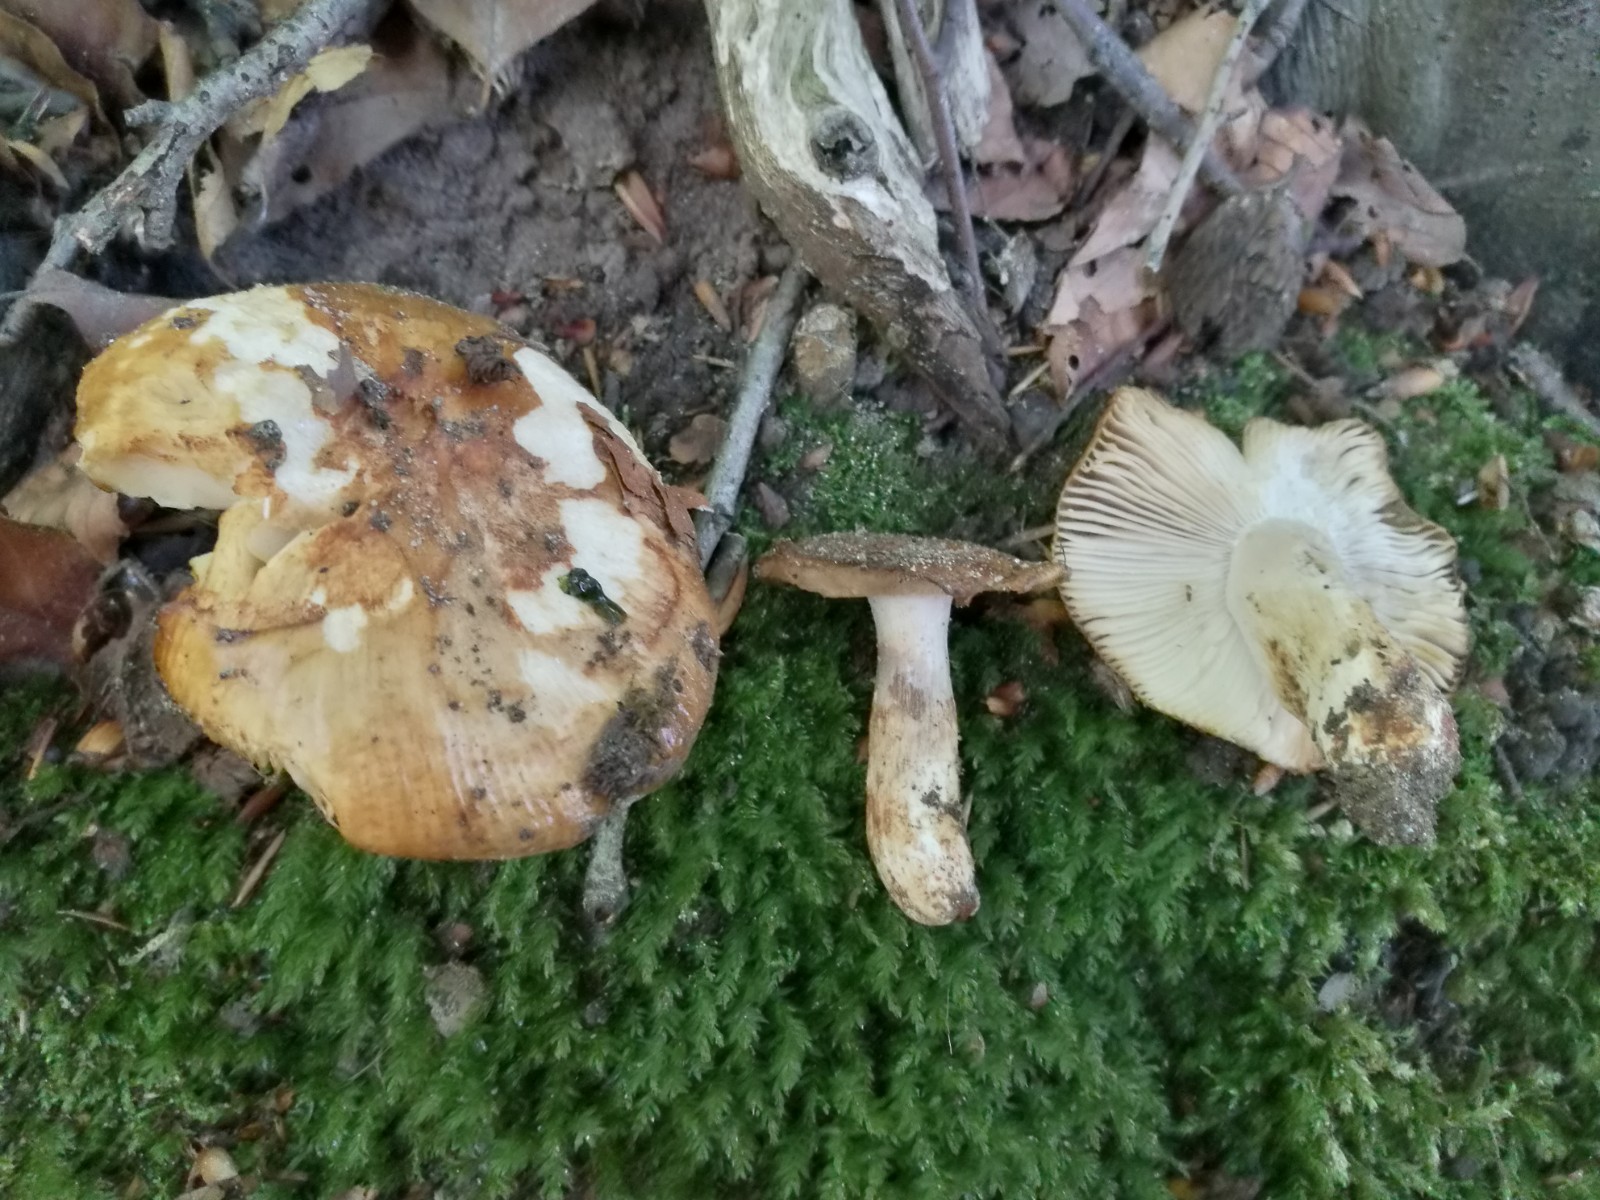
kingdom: Fungi
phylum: Basidiomycota
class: Agaricomycetes
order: Russulales
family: Russulaceae
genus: Russula
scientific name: Russula grata
